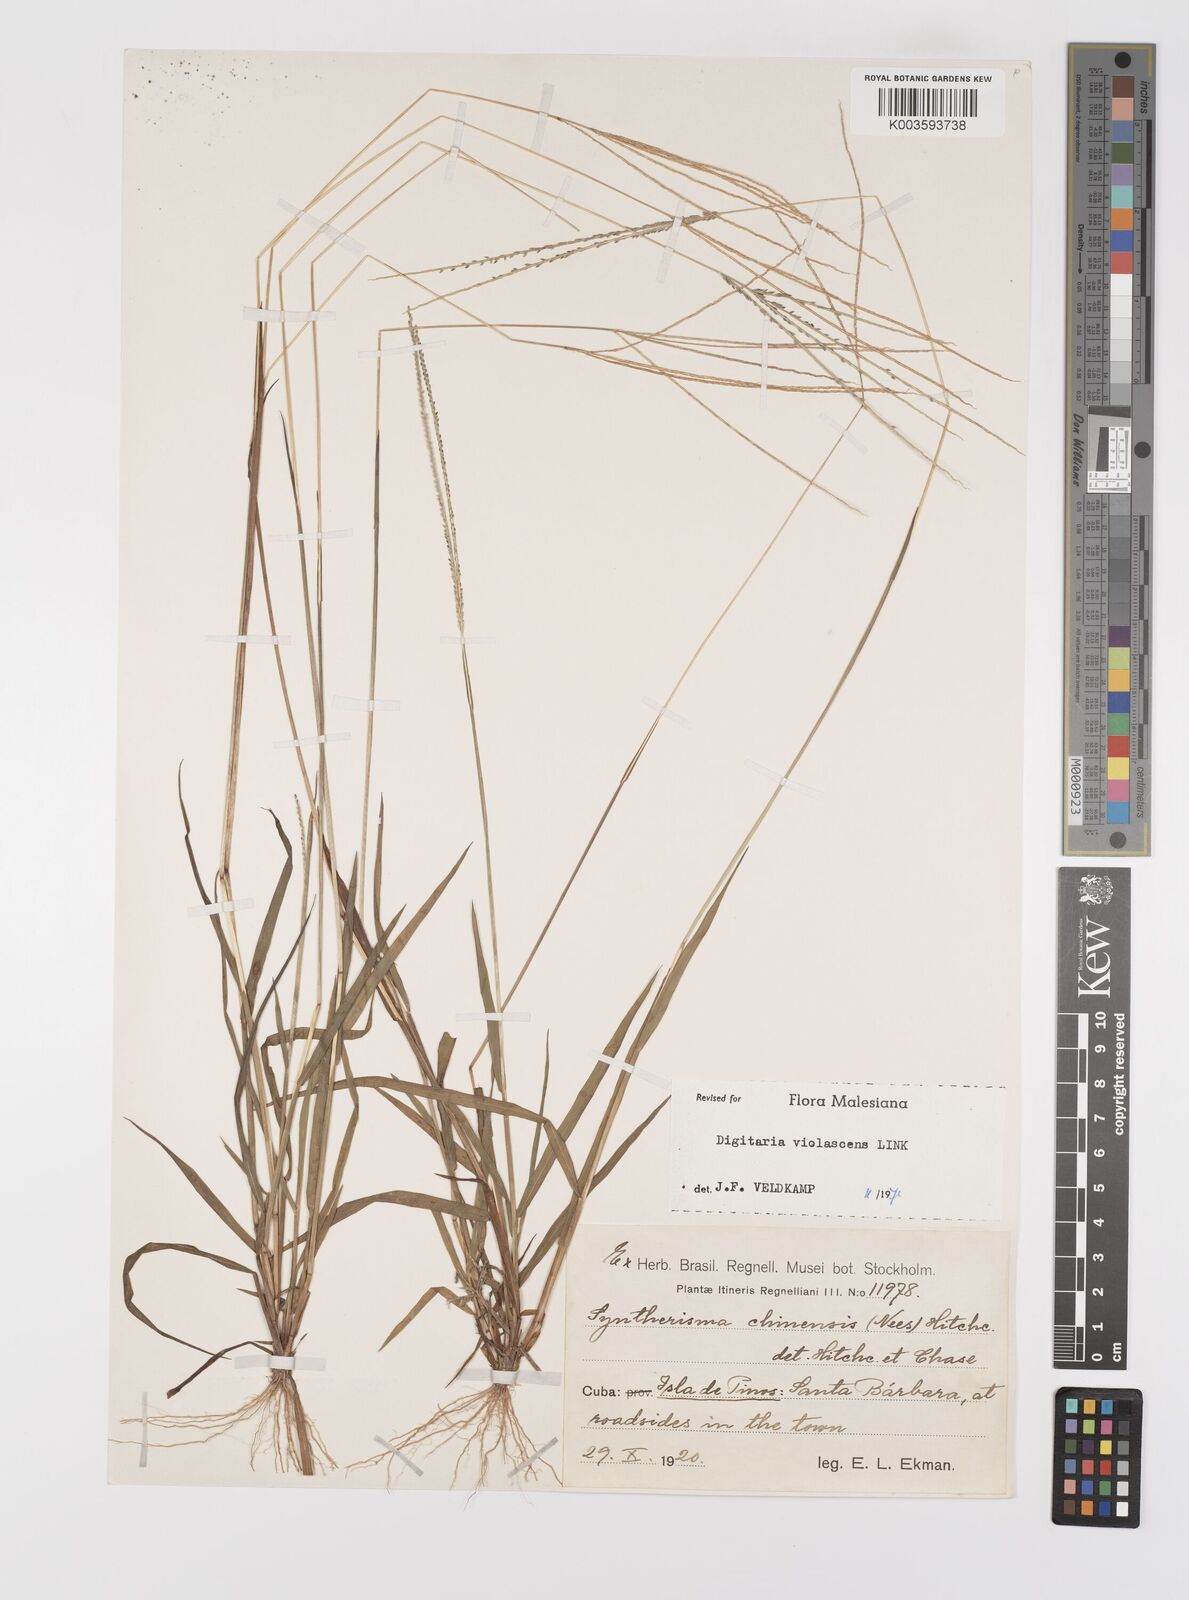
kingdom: Plantae
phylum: Tracheophyta
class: Liliopsida
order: Poales
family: Poaceae
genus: Digitaria
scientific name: Digitaria violascens
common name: Violet crabgrass
